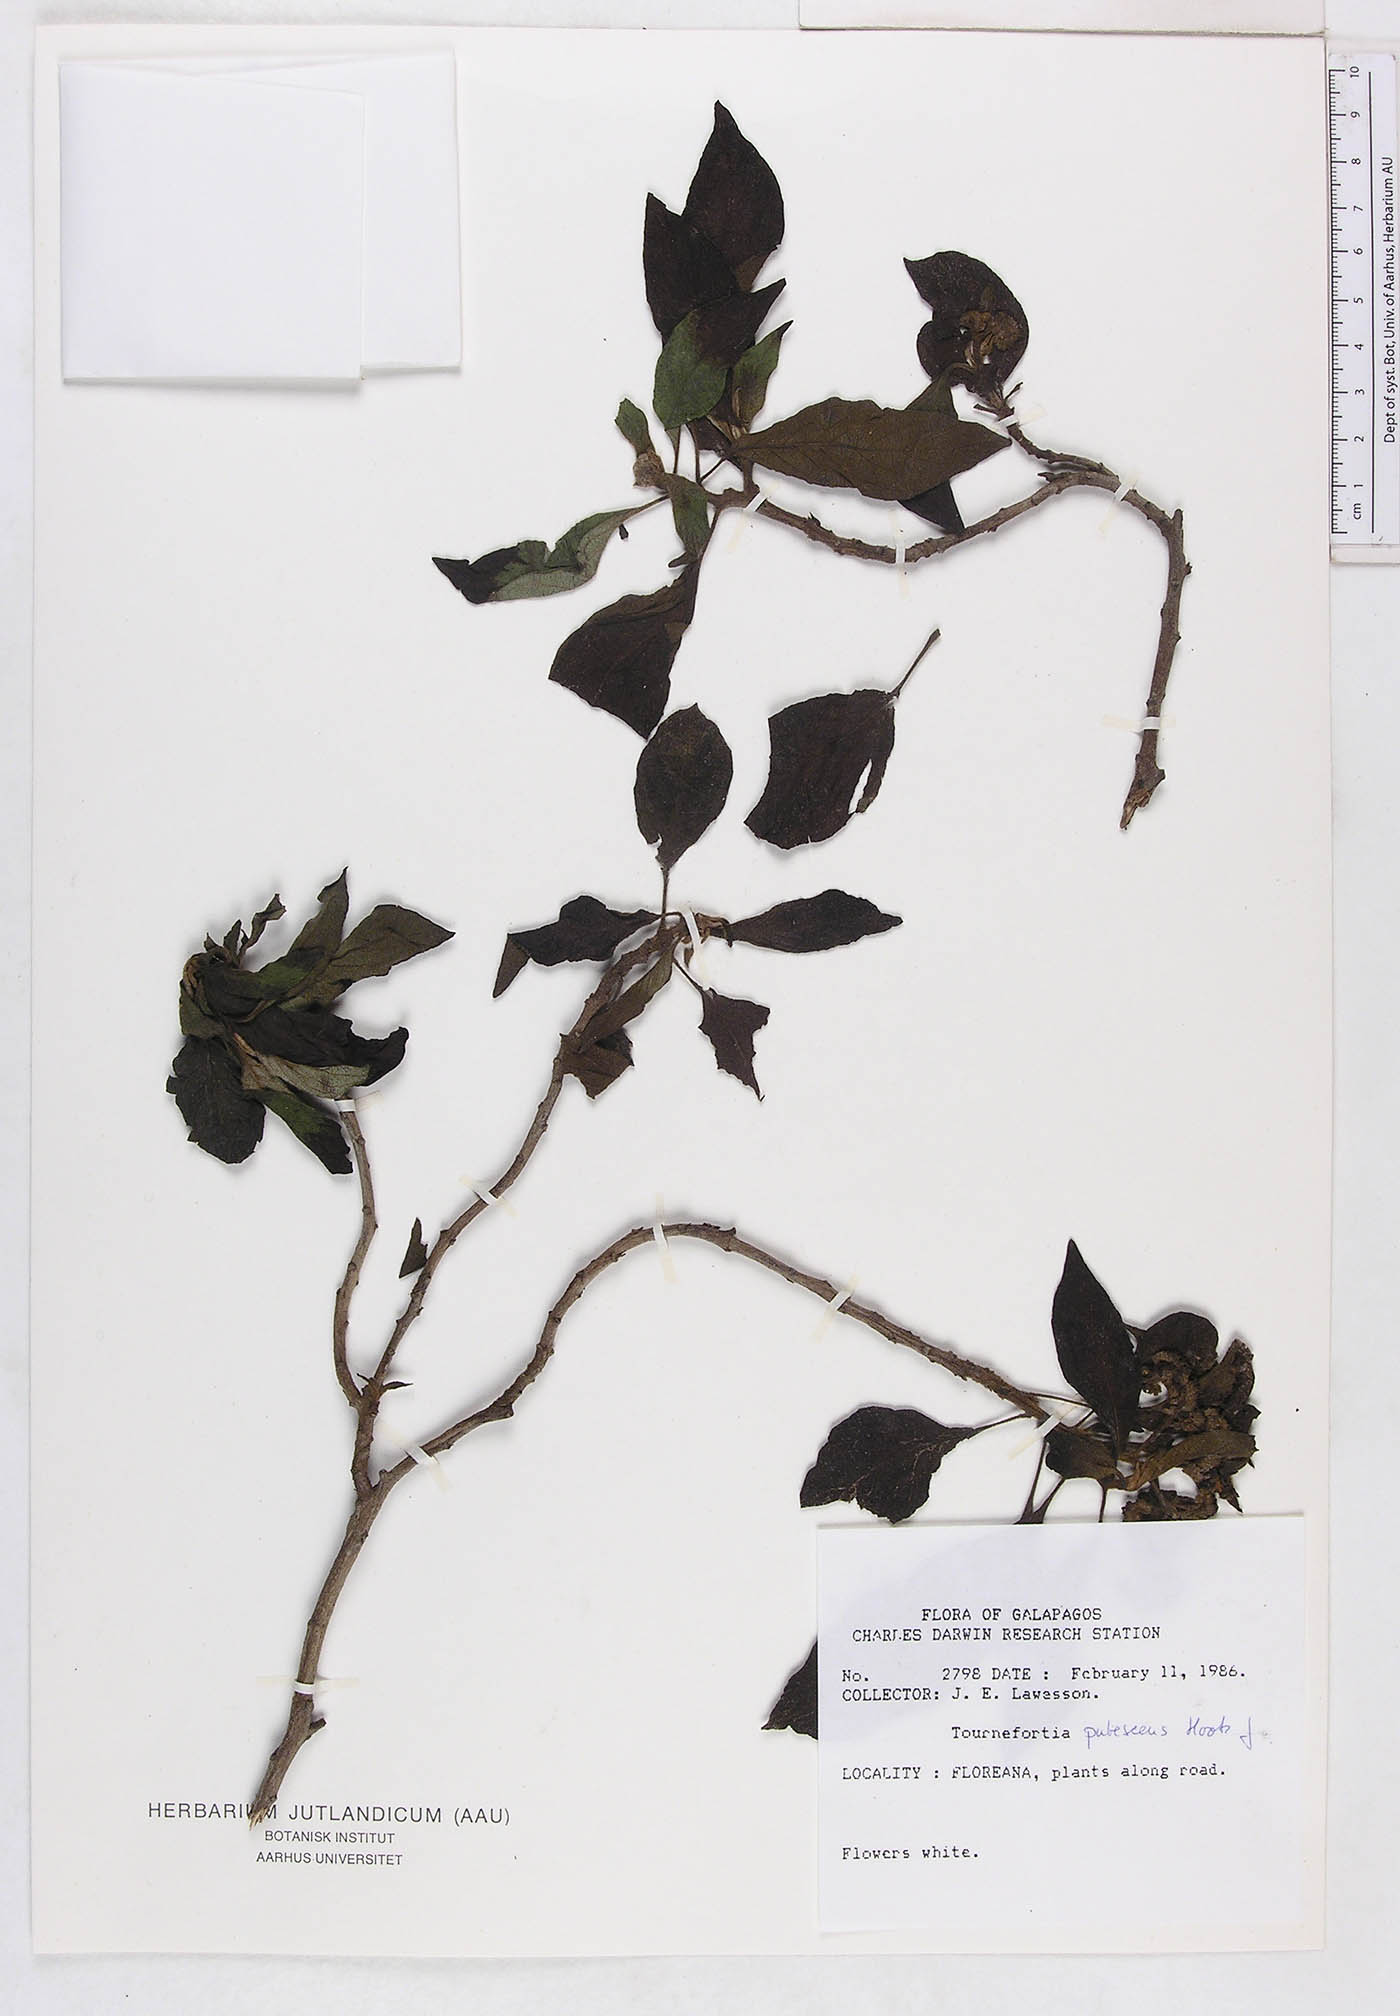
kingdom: Plantae
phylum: Tracheophyta
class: Magnoliopsida
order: Boraginales
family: Heliotropiaceae
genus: Tournefortia
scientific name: Tournefortia pubescens
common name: White-haired tournefortia
